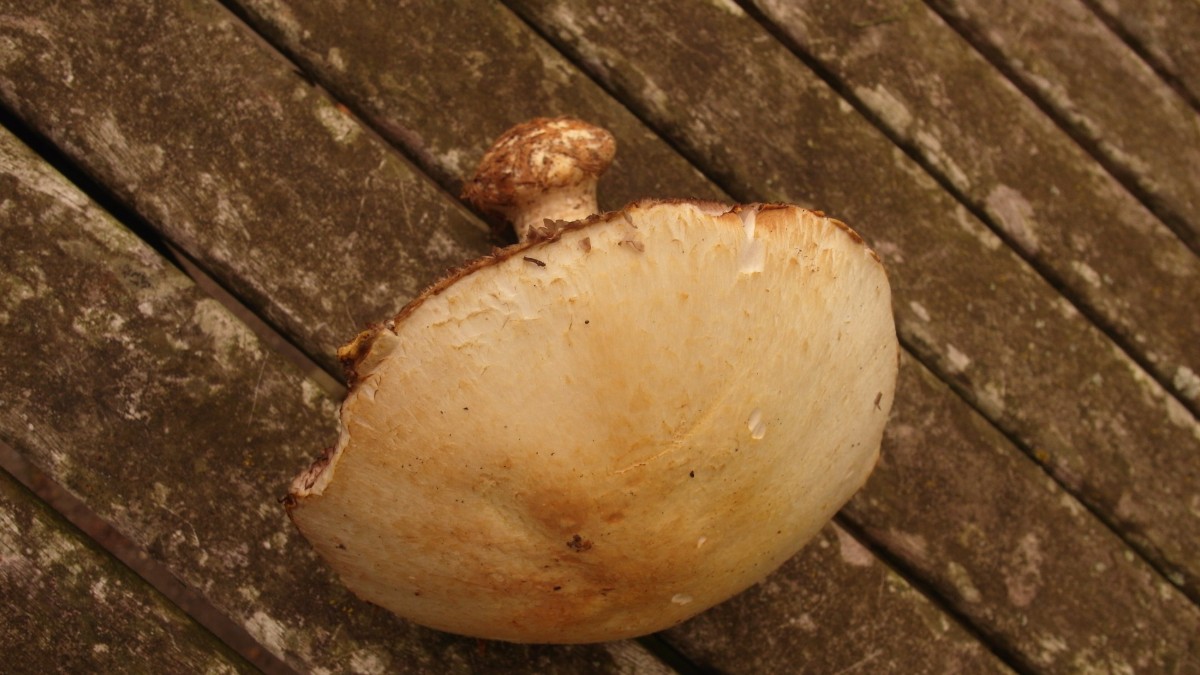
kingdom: Fungi
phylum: Basidiomycota
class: Agaricomycetes
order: Agaricales
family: Agaricaceae
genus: Agaricus
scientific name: Agaricus sylvicola
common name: skiveknoldet champignon
